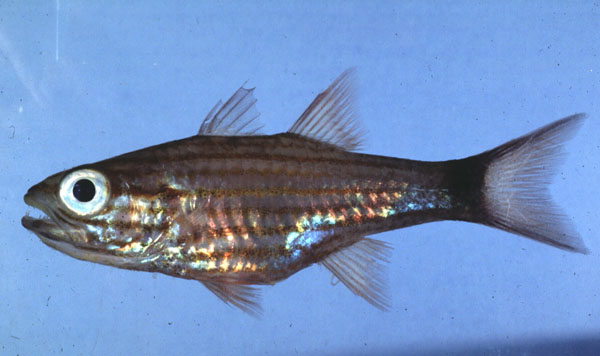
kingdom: Animalia
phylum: Chordata
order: Perciformes
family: Apogonidae
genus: Cheilodipterus
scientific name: Cheilodipterus macrodon
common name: Eight-lined cardinalfish
